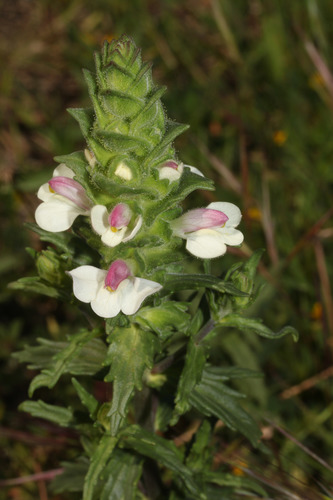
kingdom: Plantae
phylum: Tracheophyta
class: Magnoliopsida
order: Lamiales
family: Orobanchaceae
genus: Bellardia
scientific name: Bellardia trixago
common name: Mediterranean lineseed
